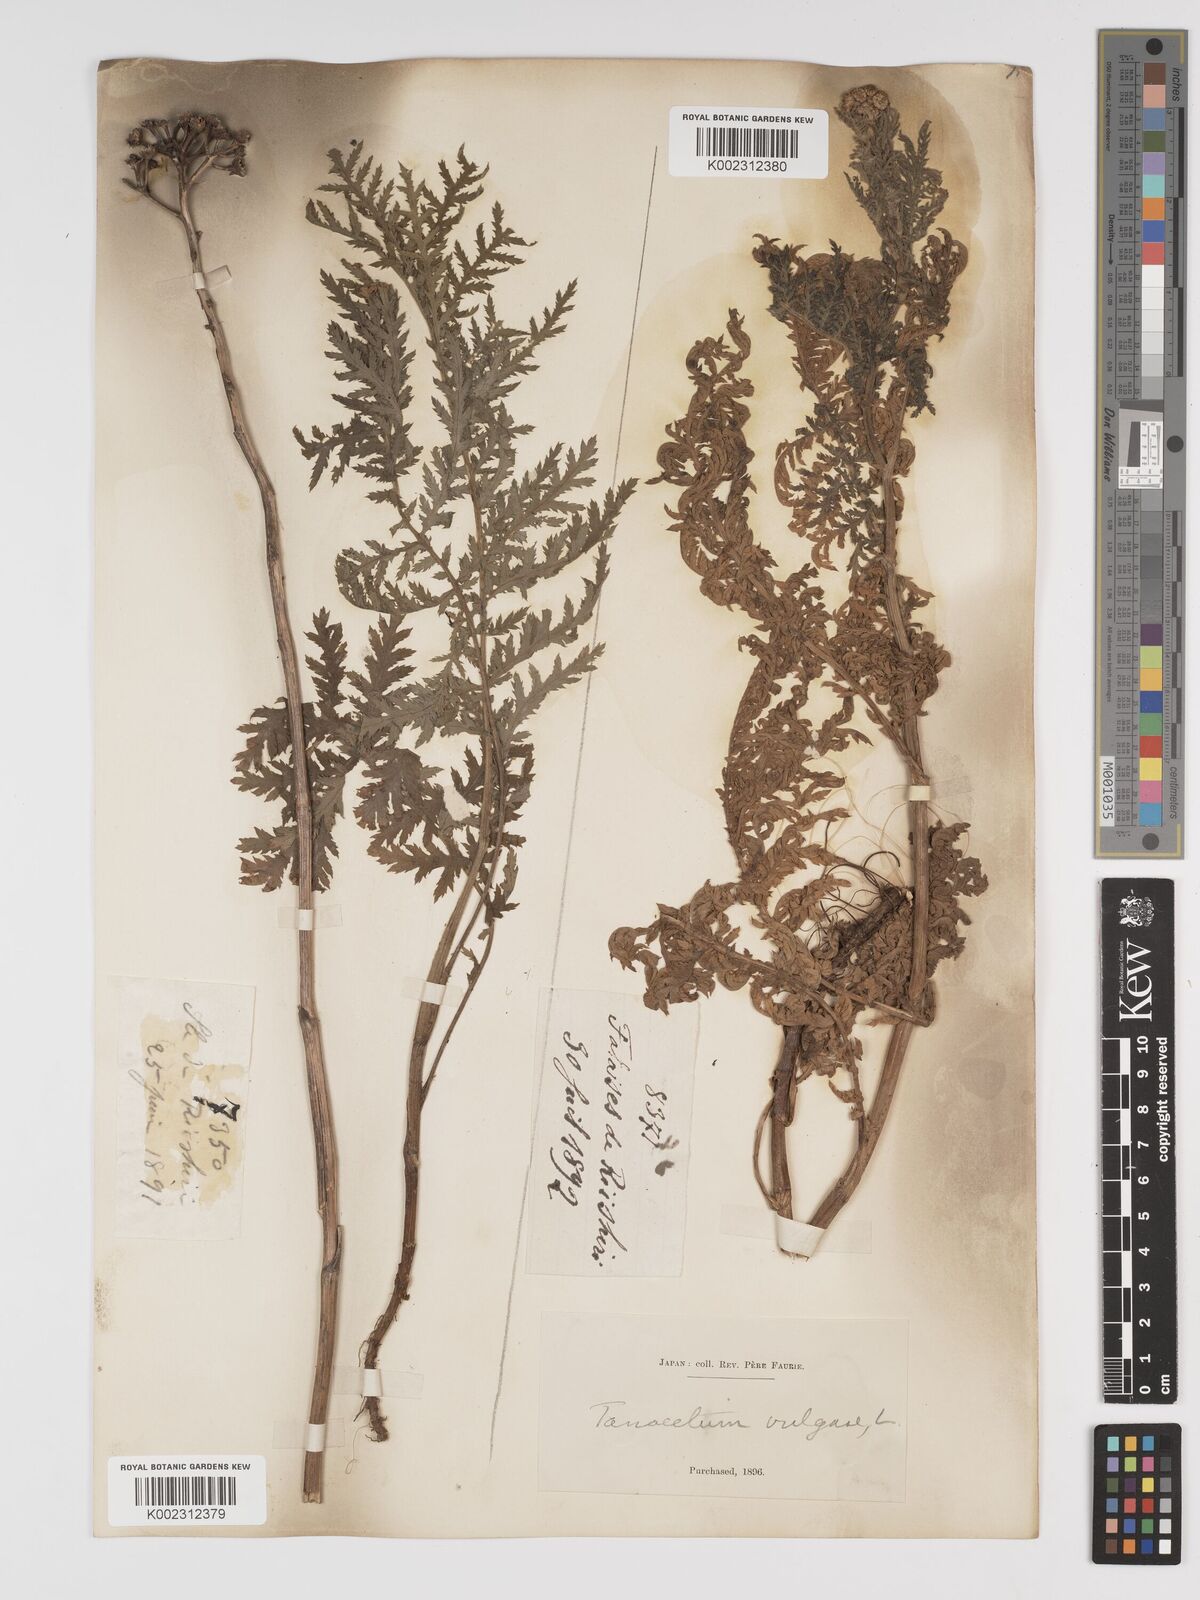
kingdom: Plantae
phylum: Tracheophyta
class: Magnoliopsida
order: Asterales
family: Asteraceae
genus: Tanacetum
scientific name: Tanacetum vulgare
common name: Common tansy
